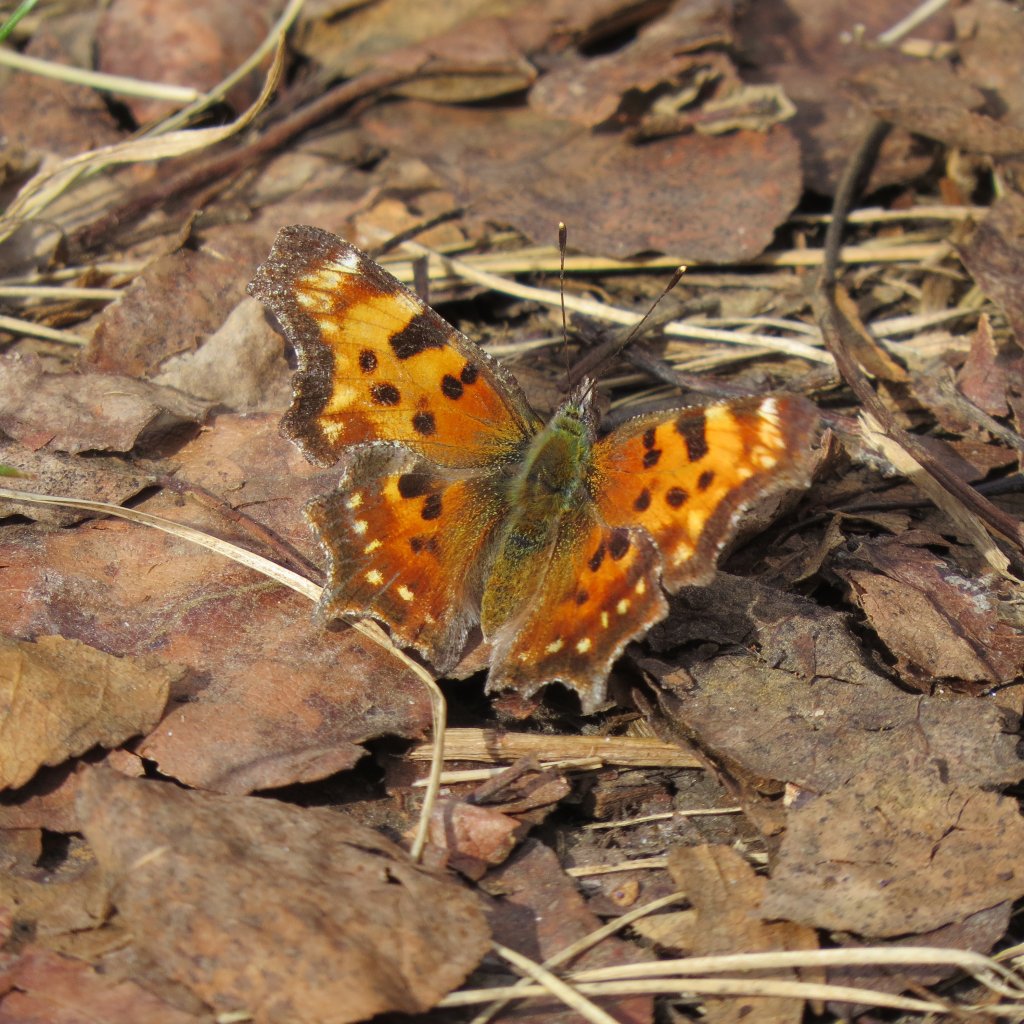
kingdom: Animalia
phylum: Arthropoda
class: Insecta
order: Lepidoptera
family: Nymphalidae
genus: Polygonia
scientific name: Polygonia comma
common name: Eastern Comma
